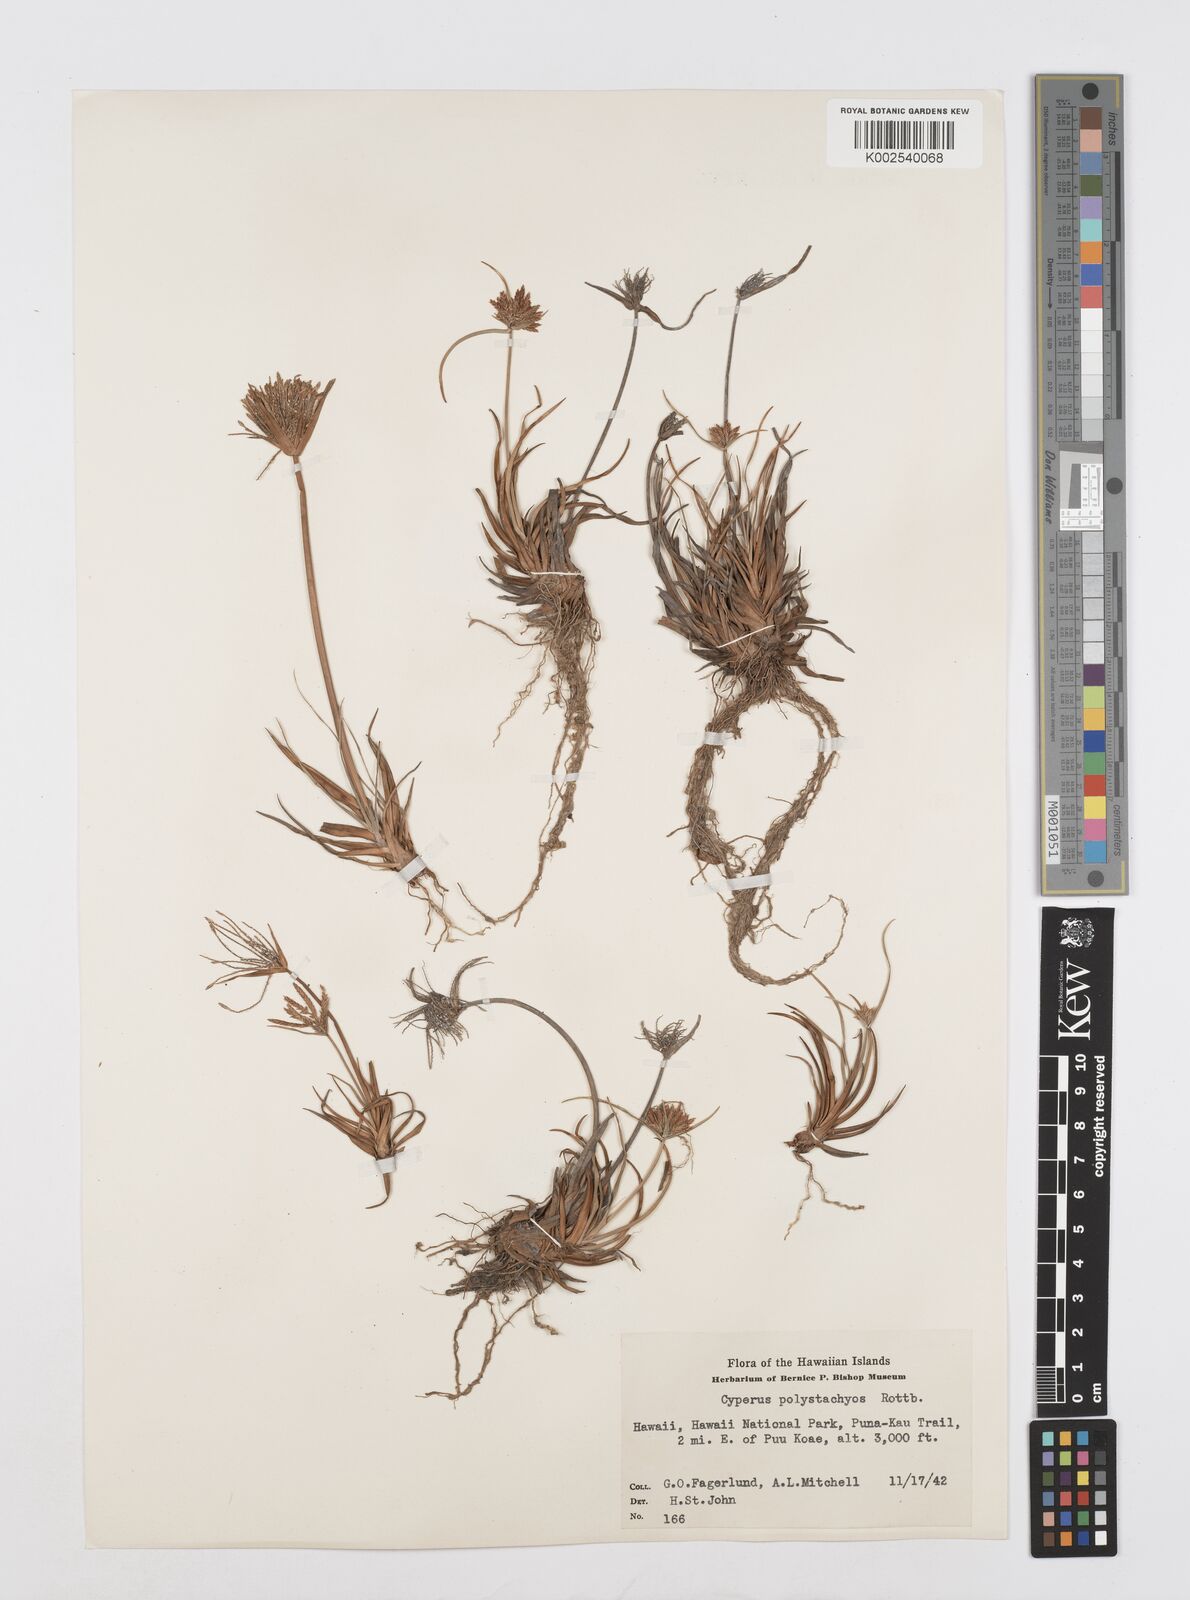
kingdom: Plantae
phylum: Tracheophyta
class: Liliopsida
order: Poales
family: Cyperaceae
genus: Cyperus
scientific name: Cyperus polystachyos
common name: Bunchy flat sedge
